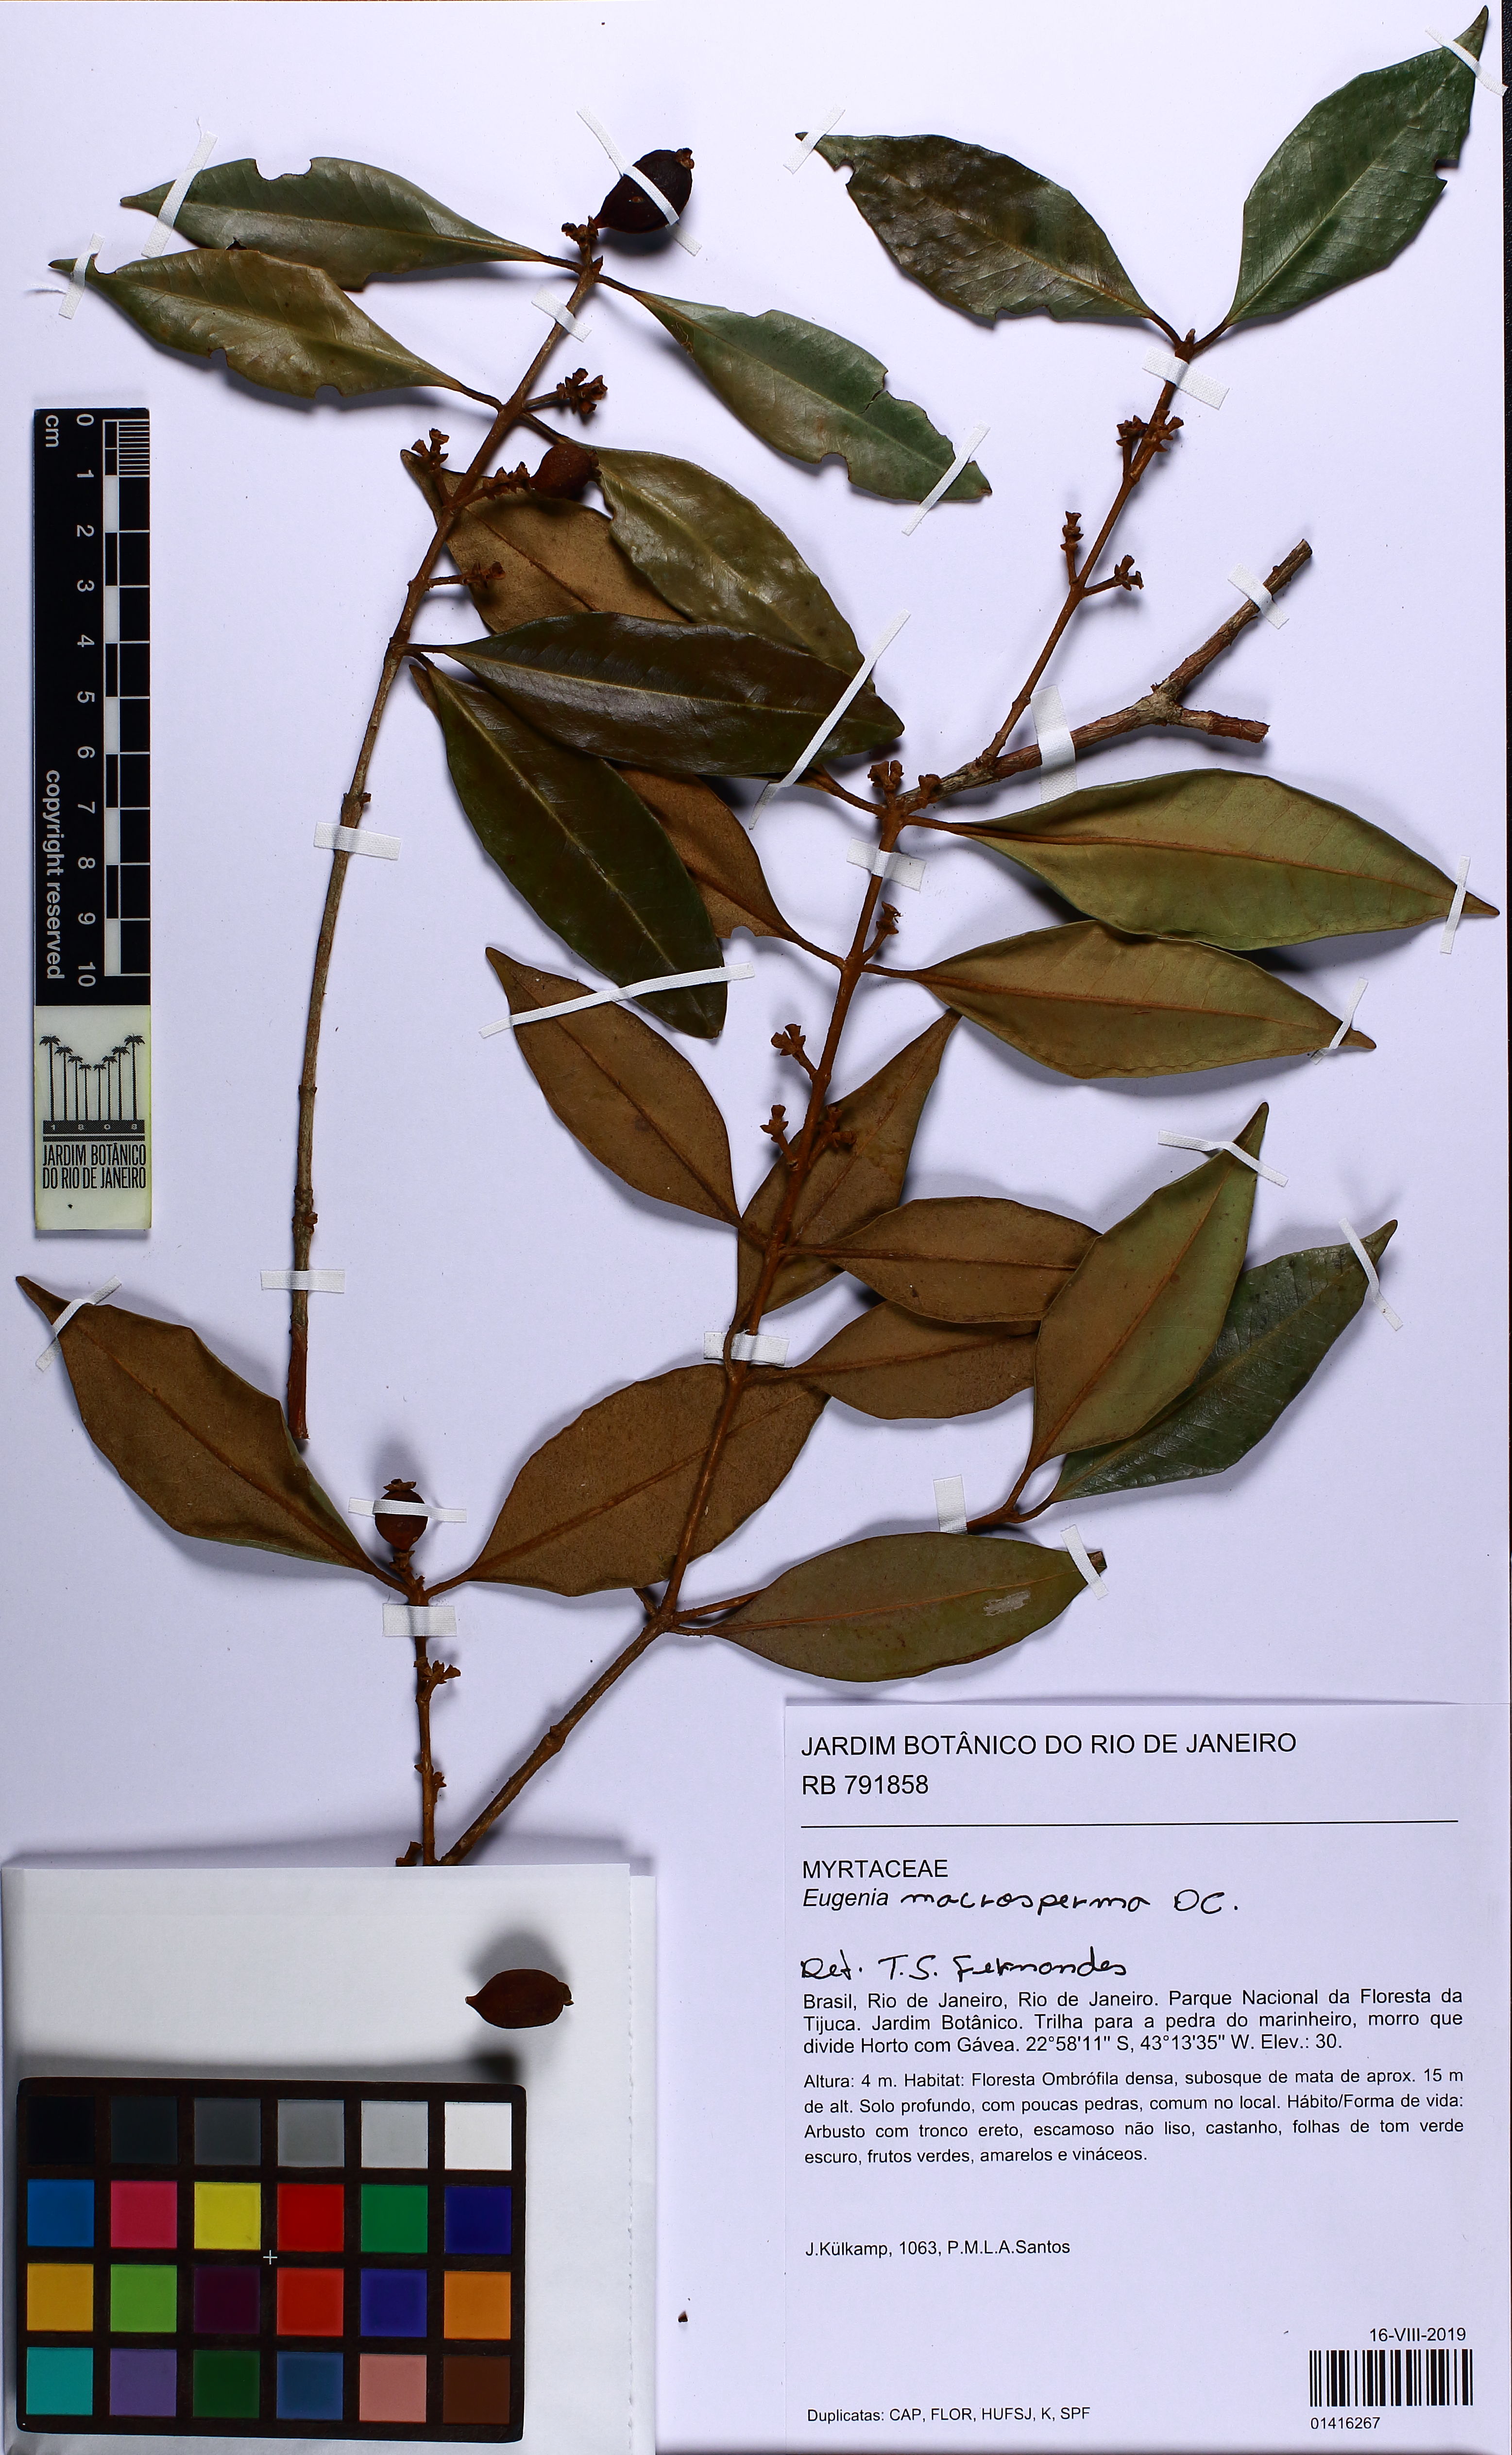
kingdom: Plantae
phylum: Tracheophyta
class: Magnoliopsida
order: Myrtales
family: Myrtaceae
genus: Eugenia
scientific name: Eugenia
